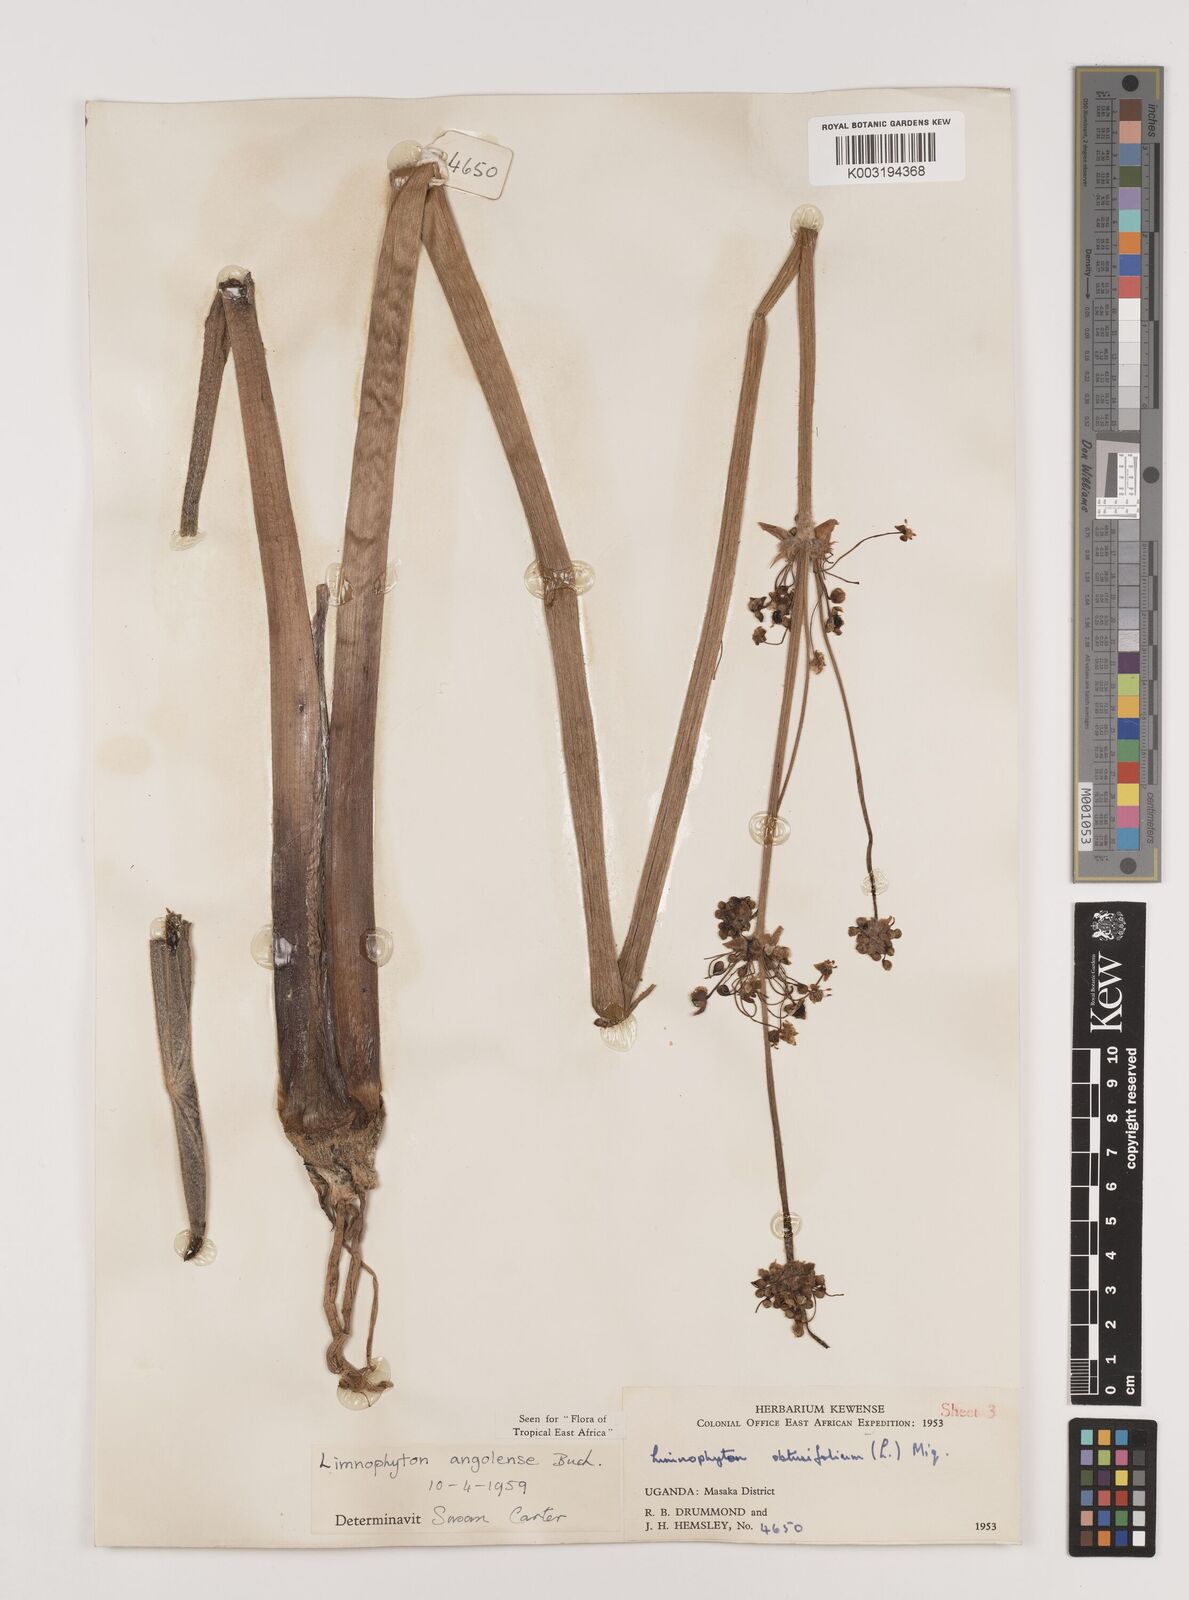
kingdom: Plantae
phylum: Tracheophyta
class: Liliopsida
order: Alismatales
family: Alismataceae
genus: Limnophyton
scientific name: Limnophyton angolense
